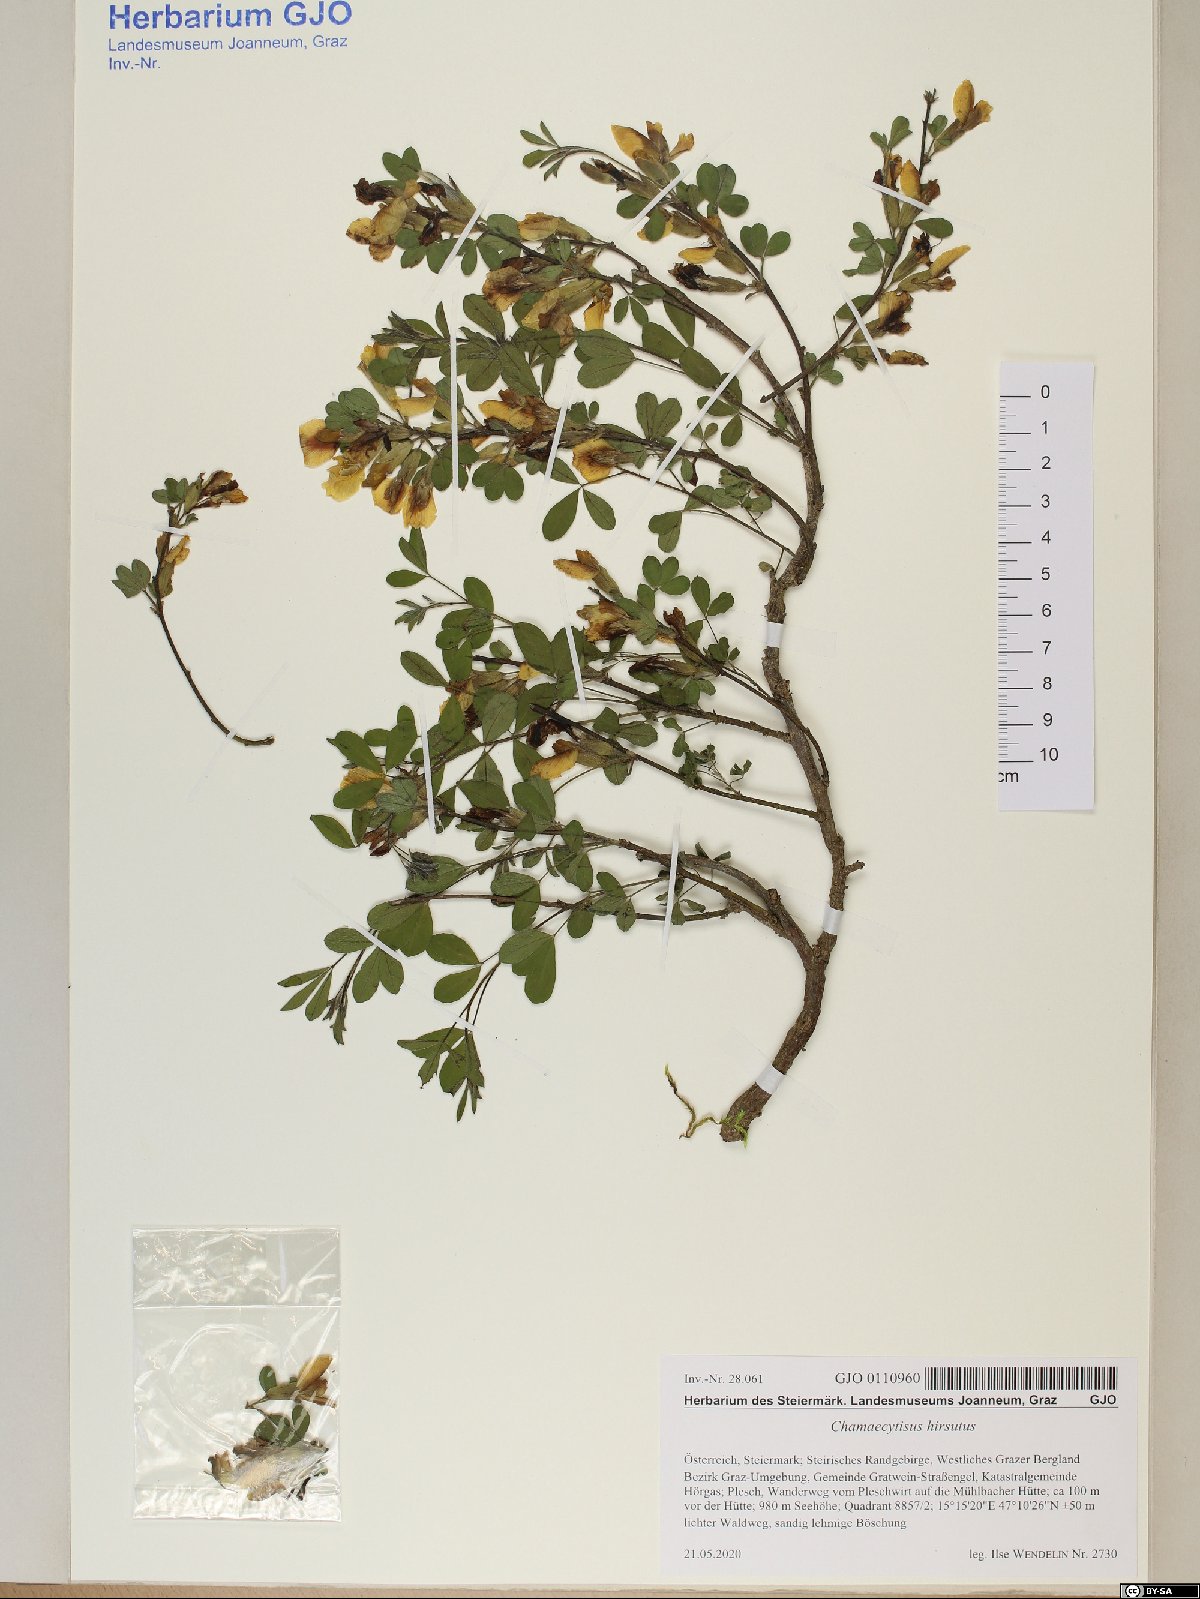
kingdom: Plantae
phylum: Tracheophyta
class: Magnoliopsida
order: Fabales
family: Fabaceae
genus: Chamaecytisus
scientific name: Chamaecytisus hirsutus
